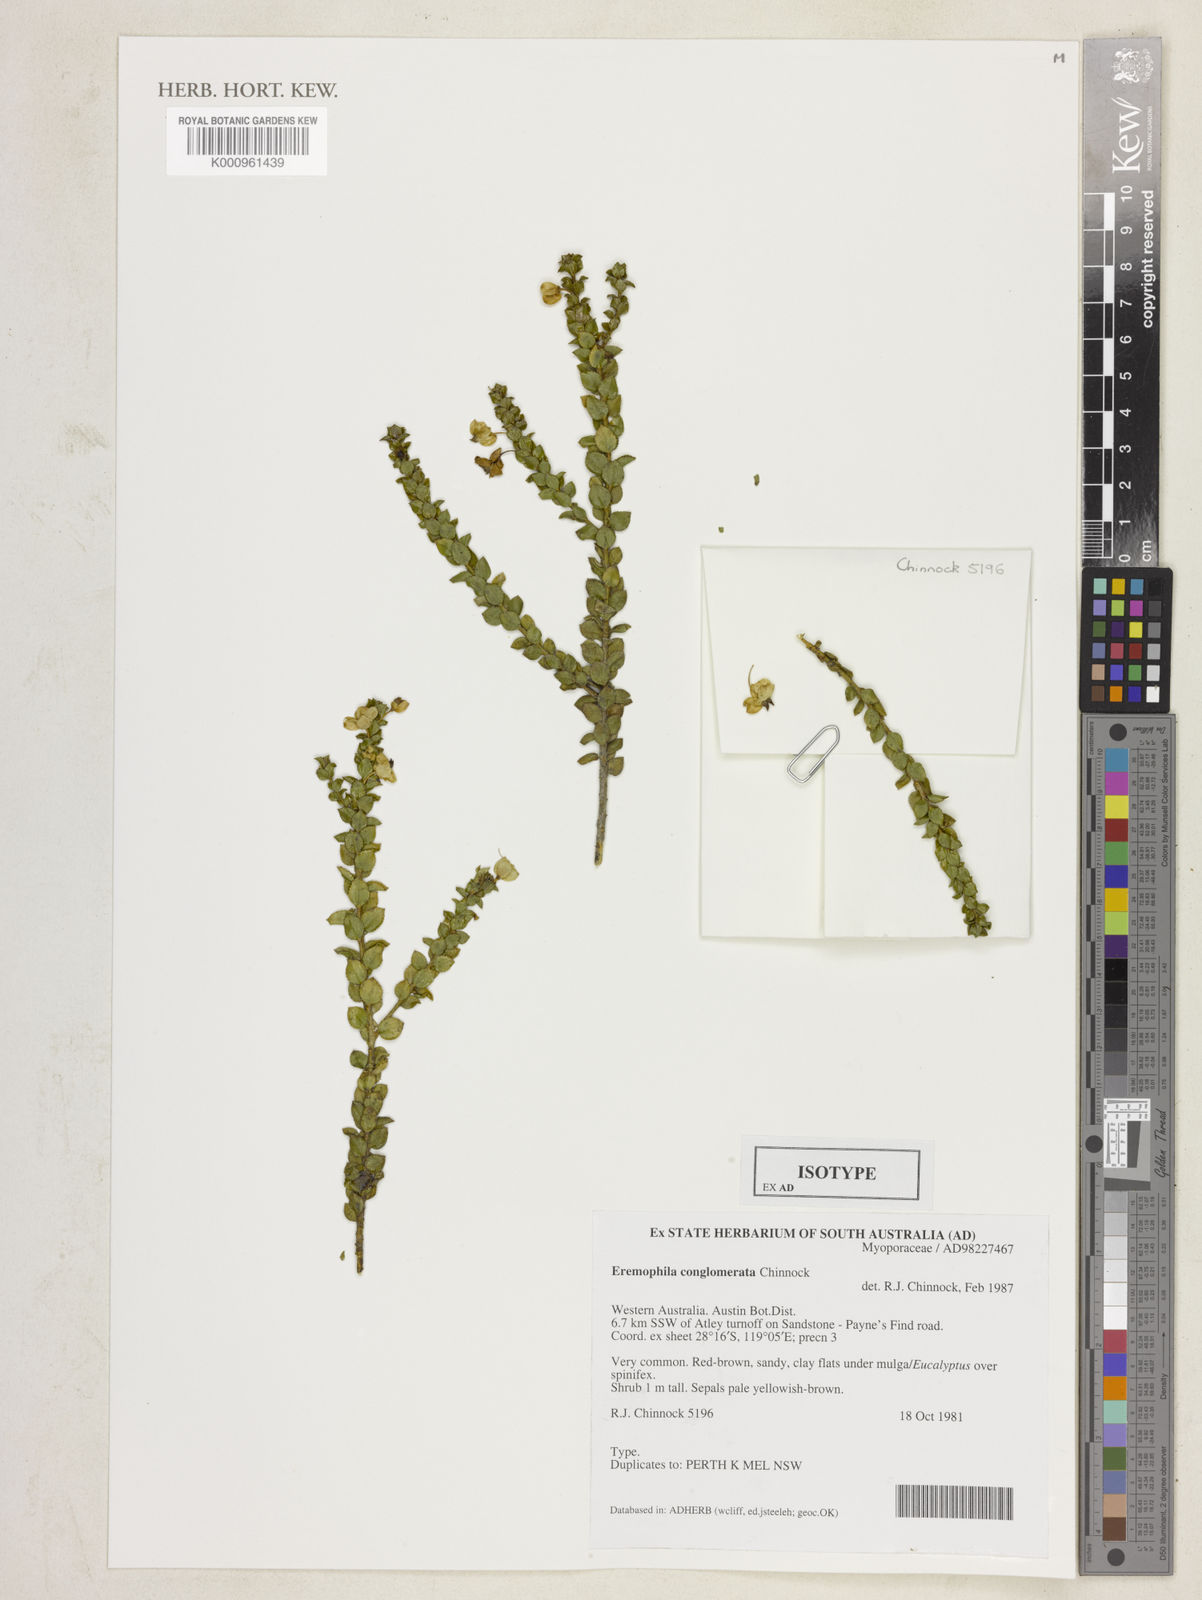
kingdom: Plantae
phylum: Tracheophyta
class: Magnoliopsida
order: Lamiales
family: Scrophulariaceae
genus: Eremophila
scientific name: Eremophila conglomerata
